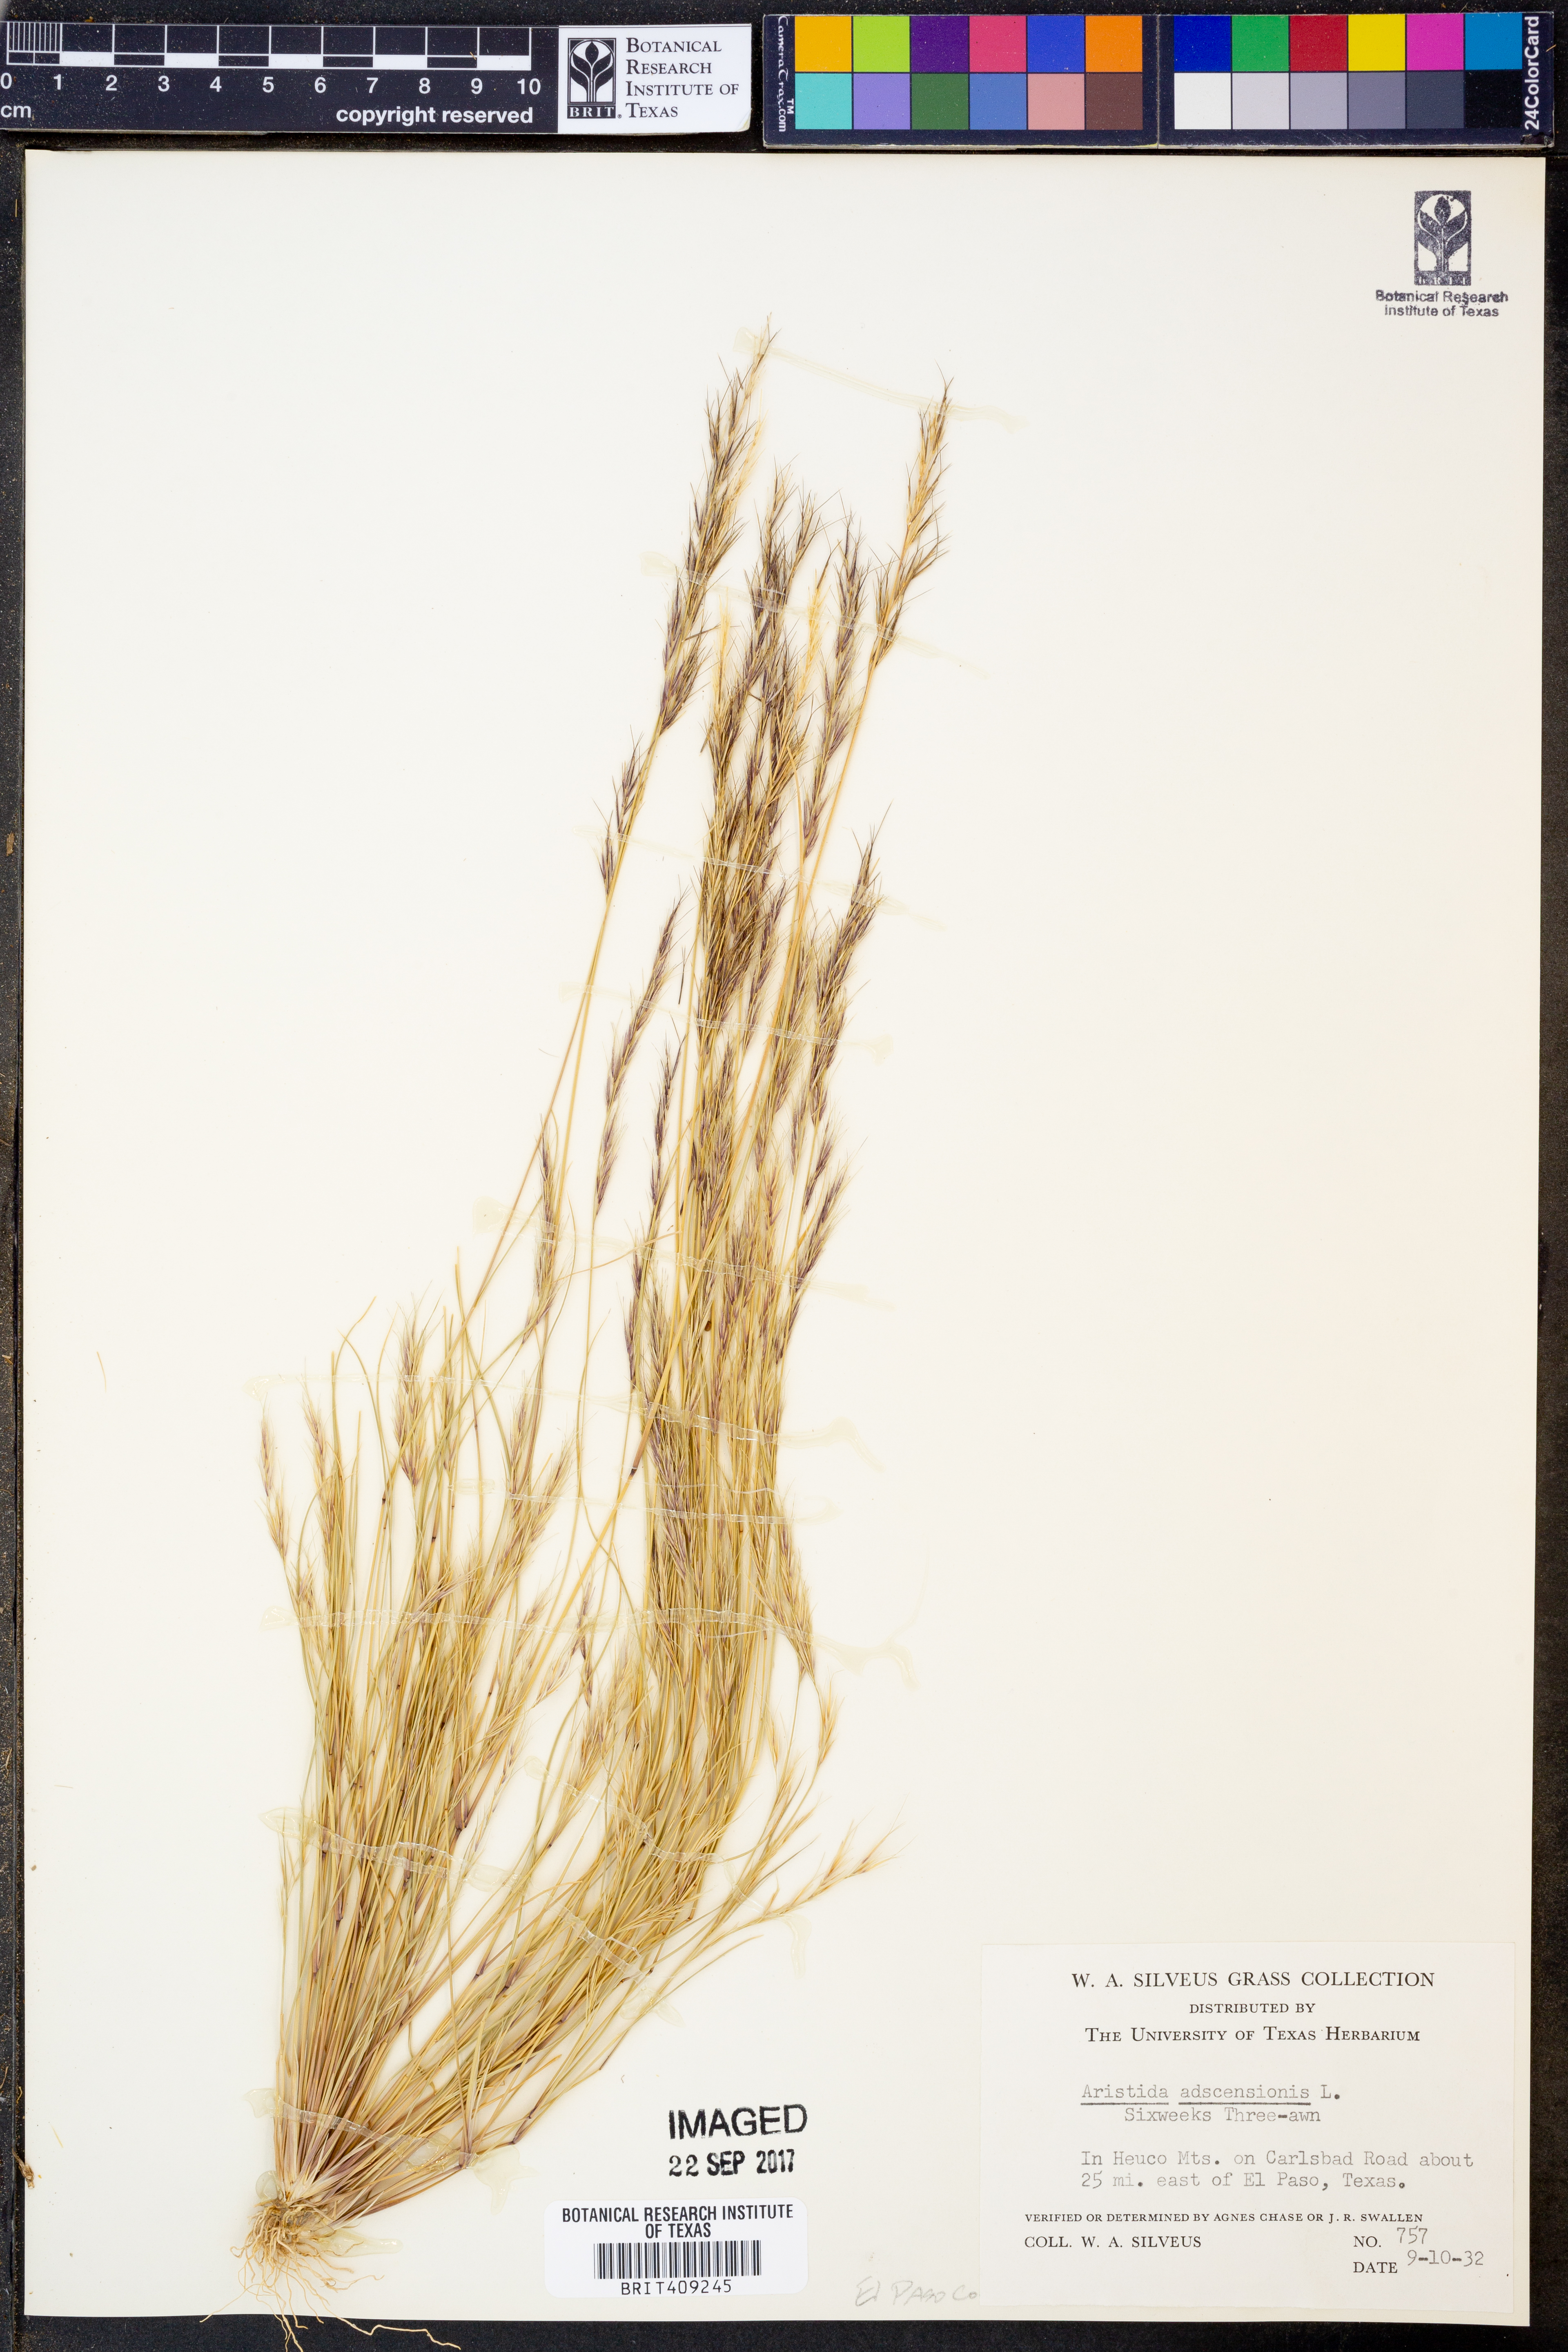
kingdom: Plantae
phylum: Tracheophyta
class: Liliopsida
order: Poales
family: Poaceae
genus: Aristida
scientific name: Aristida adscensionis
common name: Sixweeks threeawn
